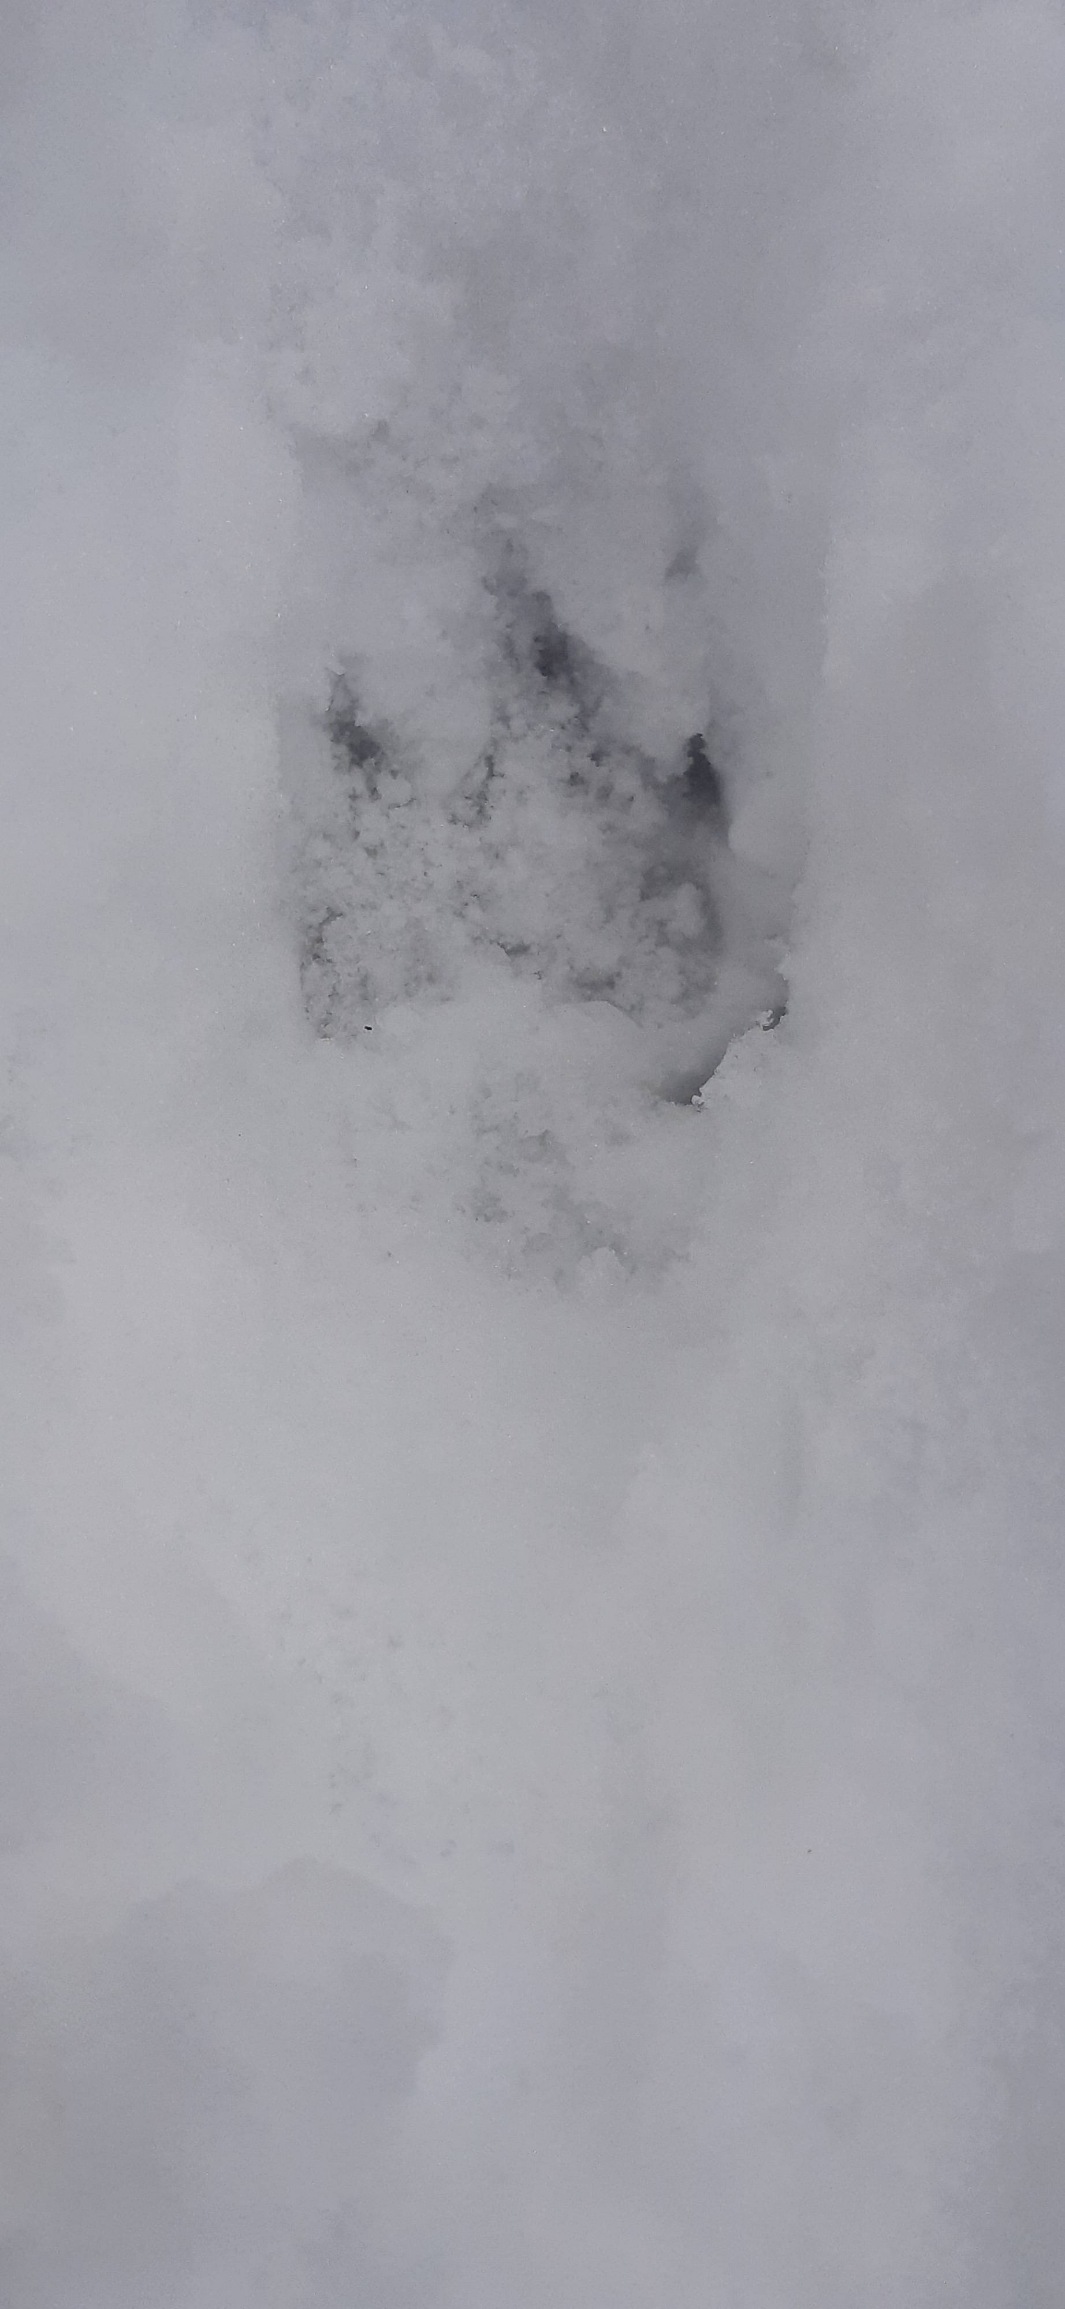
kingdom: Animalia
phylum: Chordata
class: Mammalia
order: Carnivora
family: Mustelidae
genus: Lutra
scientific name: Lutra lutra
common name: Odder
